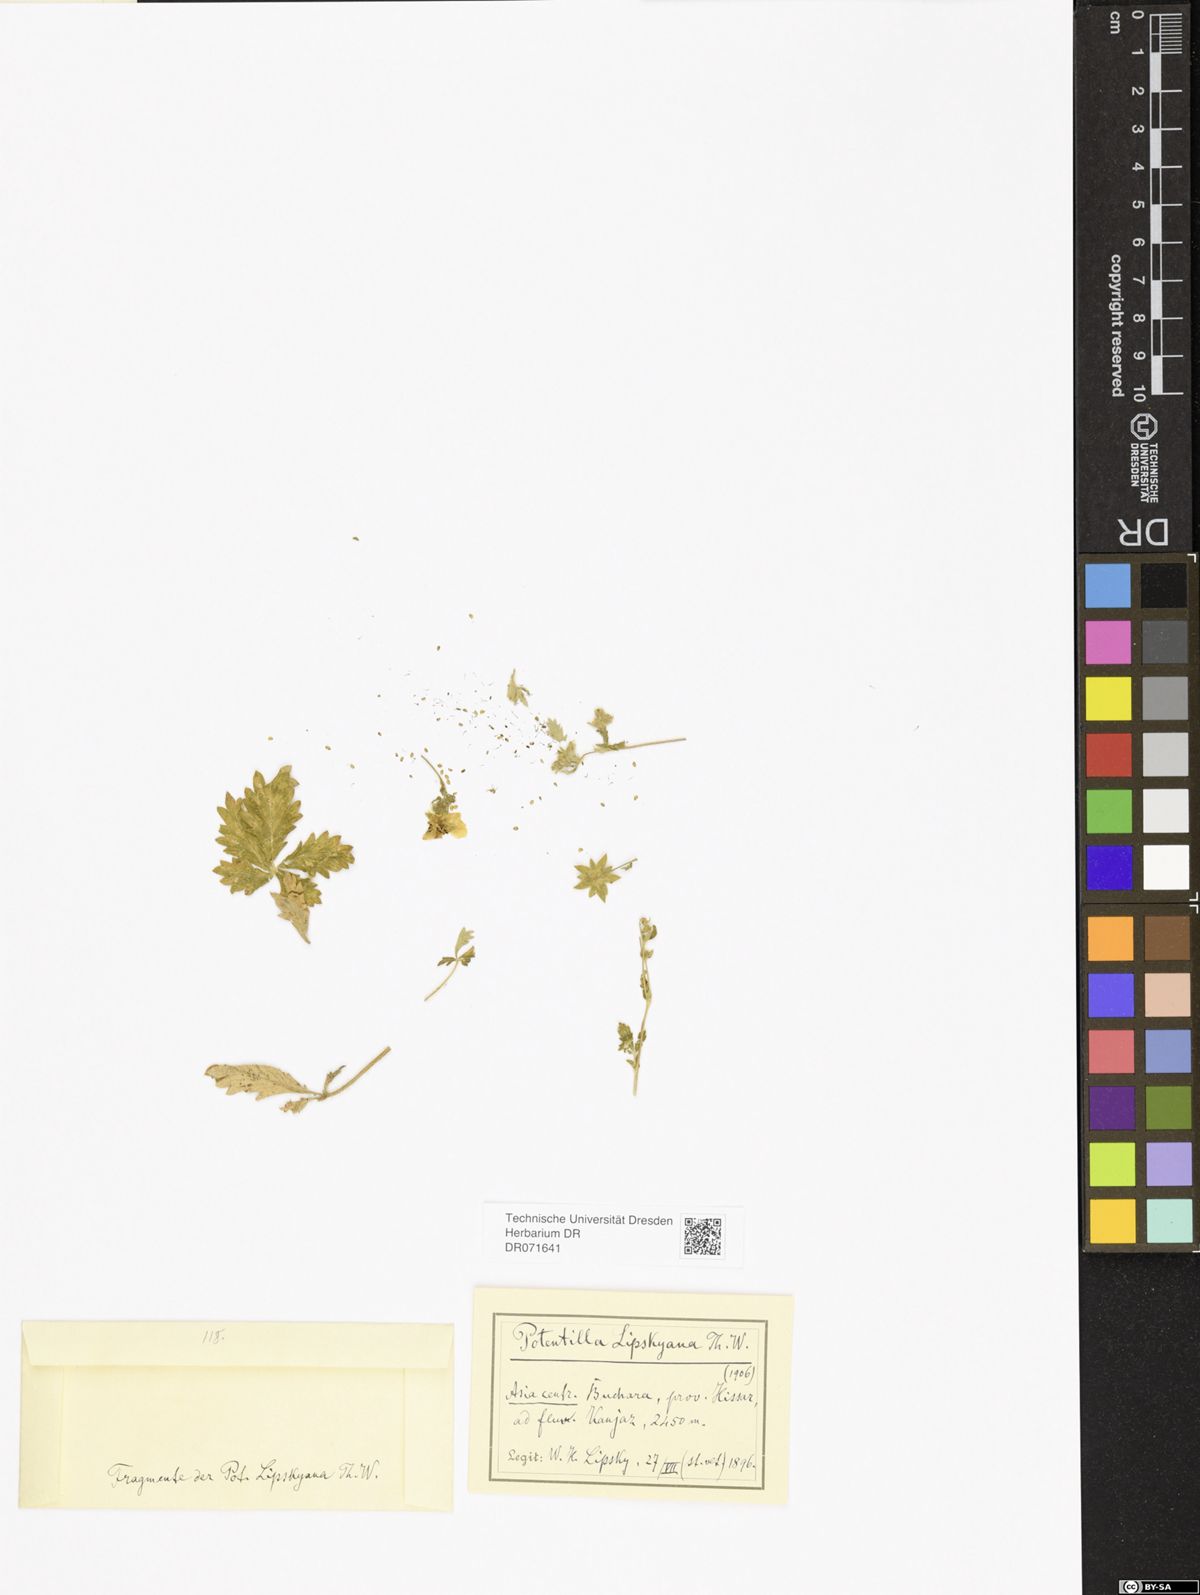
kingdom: Plantae
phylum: Tracheophyta
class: Magnoliopsida
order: Rosales
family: Rosaceae
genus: Potentilla
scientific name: Potentilla mollissima
